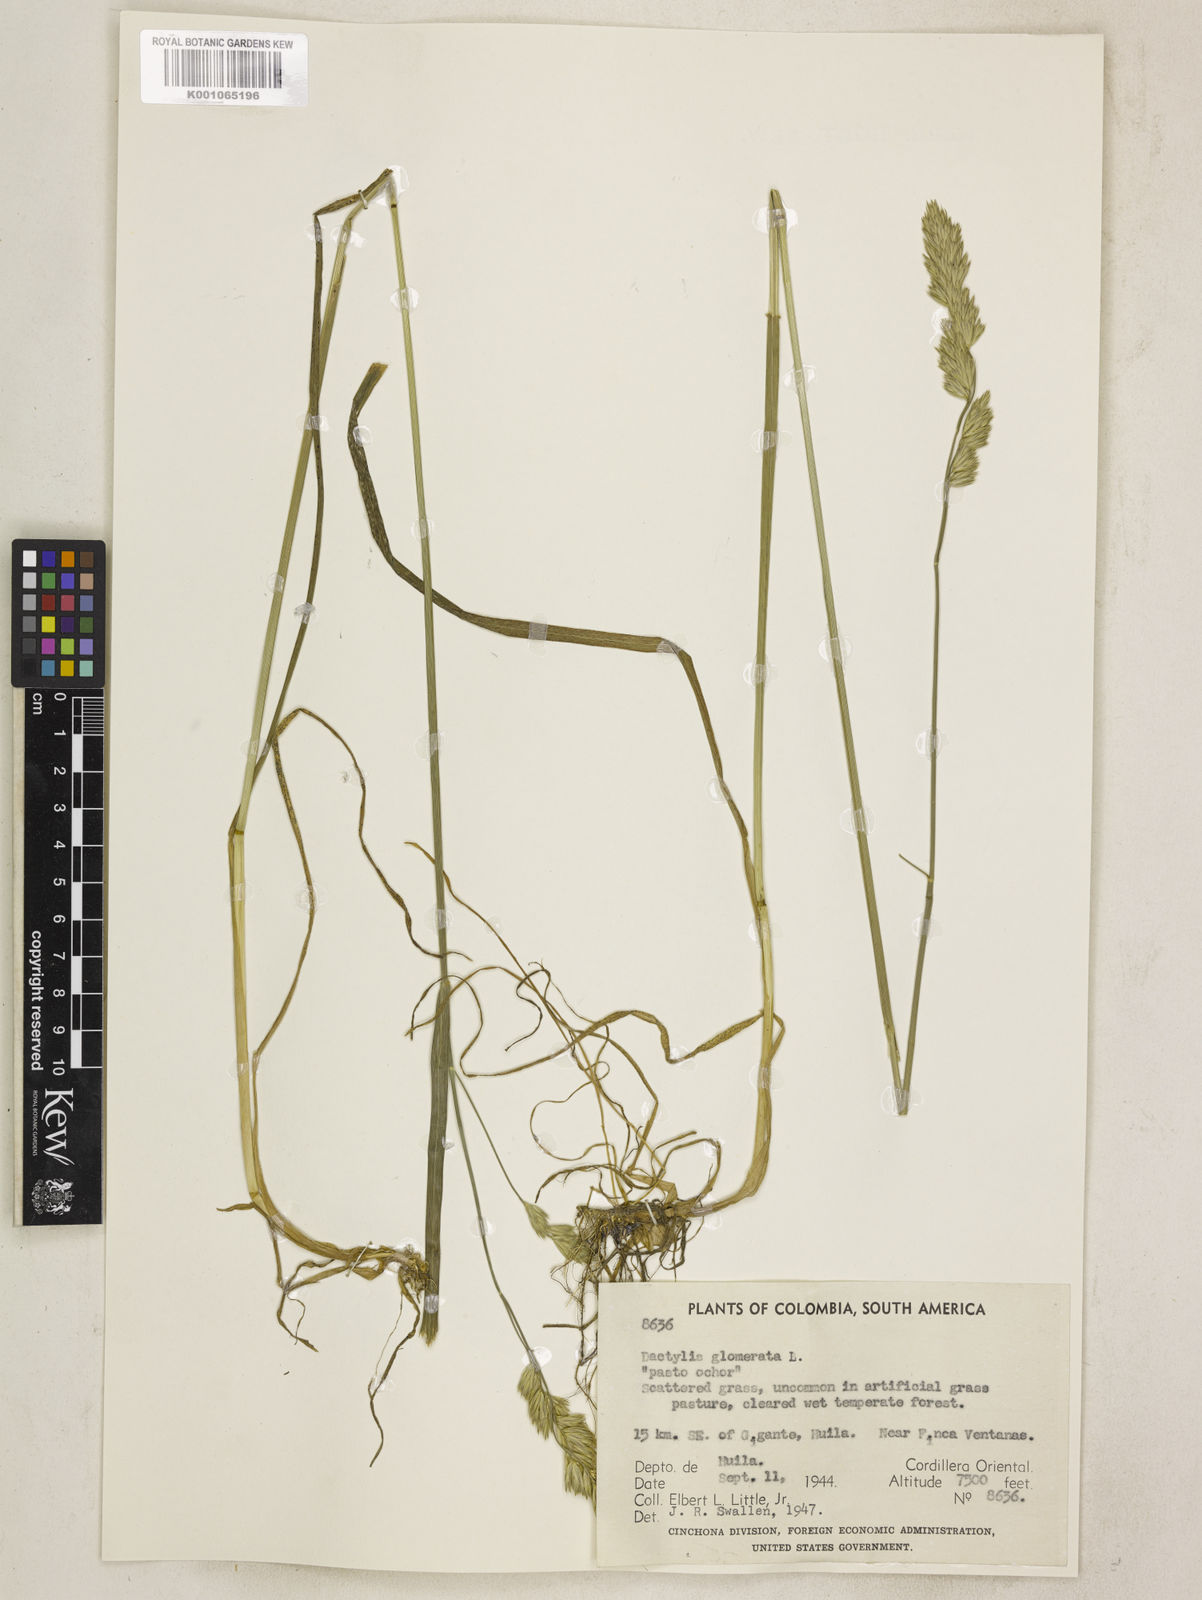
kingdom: Plantae
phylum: Tracheophyta
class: Liliopsida
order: Poales
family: Poaceae
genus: Dactylis
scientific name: Dactylis glomerata
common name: Orchardgrass
